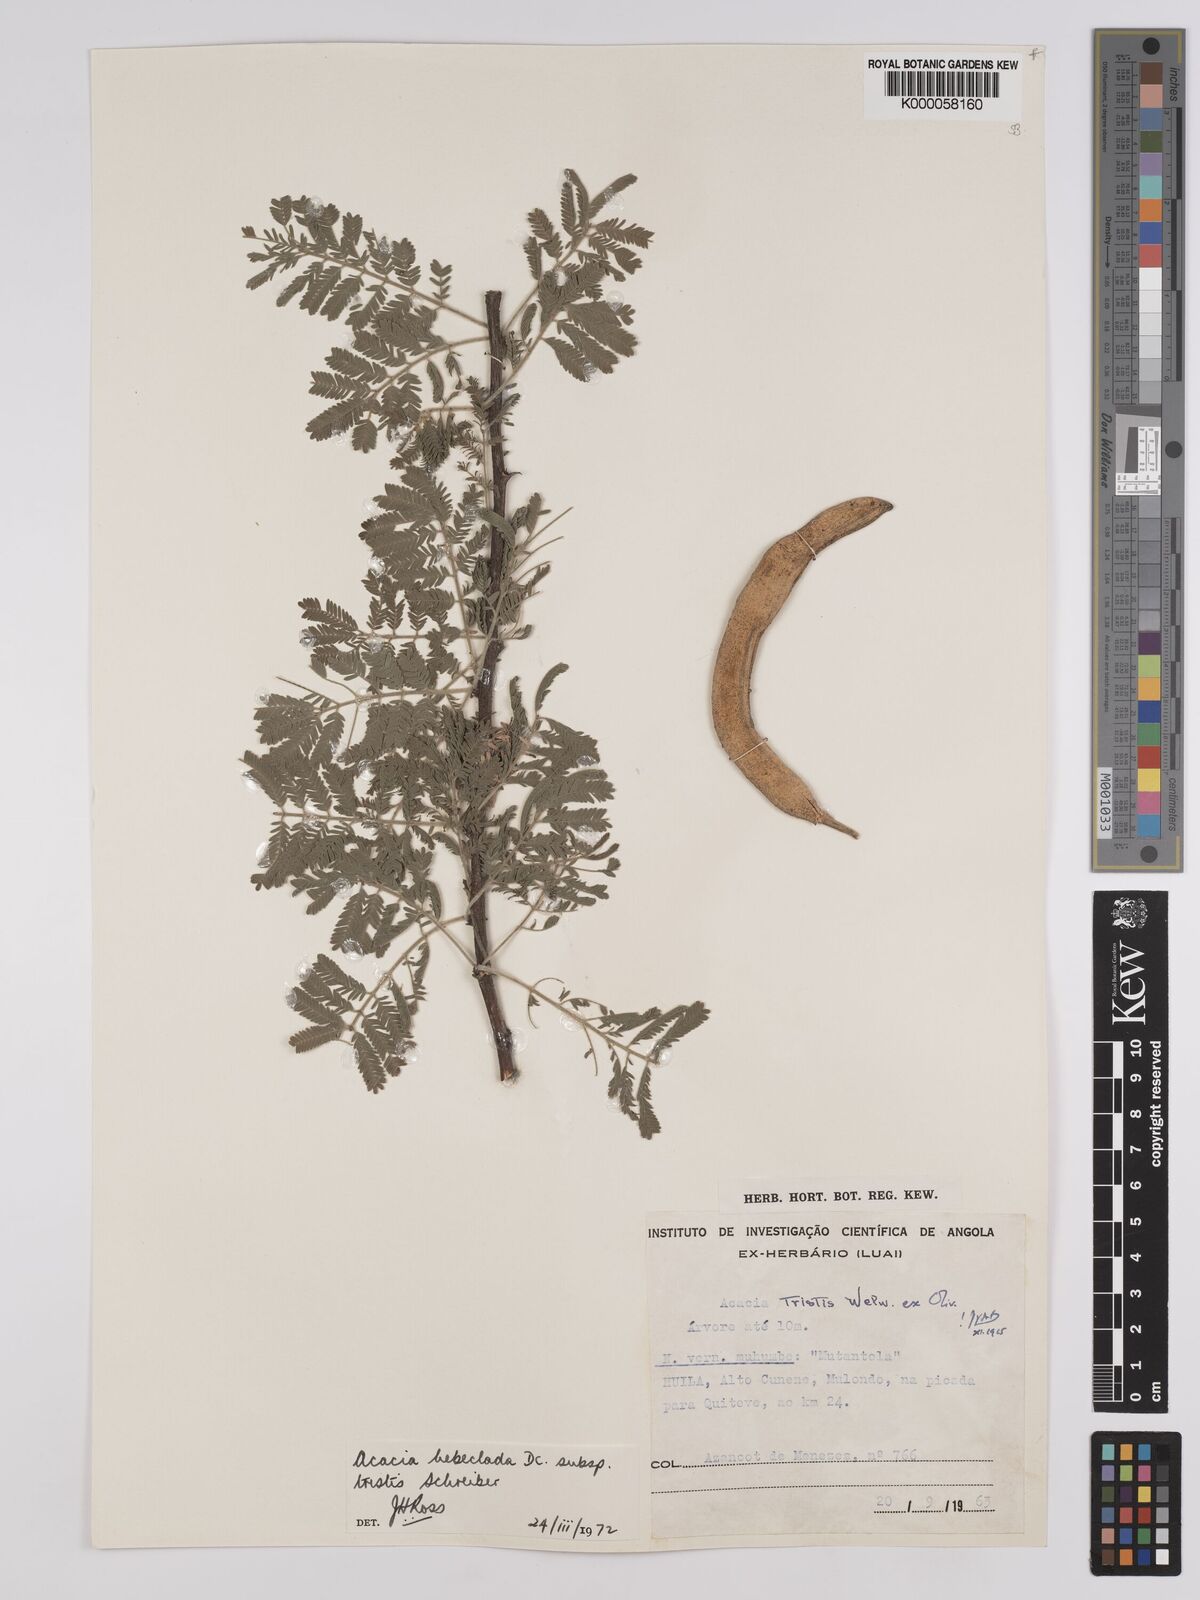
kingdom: Plantae
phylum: Tracheophyta
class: Magnoliopsida
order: Fabales
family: Fabaceae
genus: Vachellia
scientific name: Vachellia hebeclada
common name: Candle thorn
